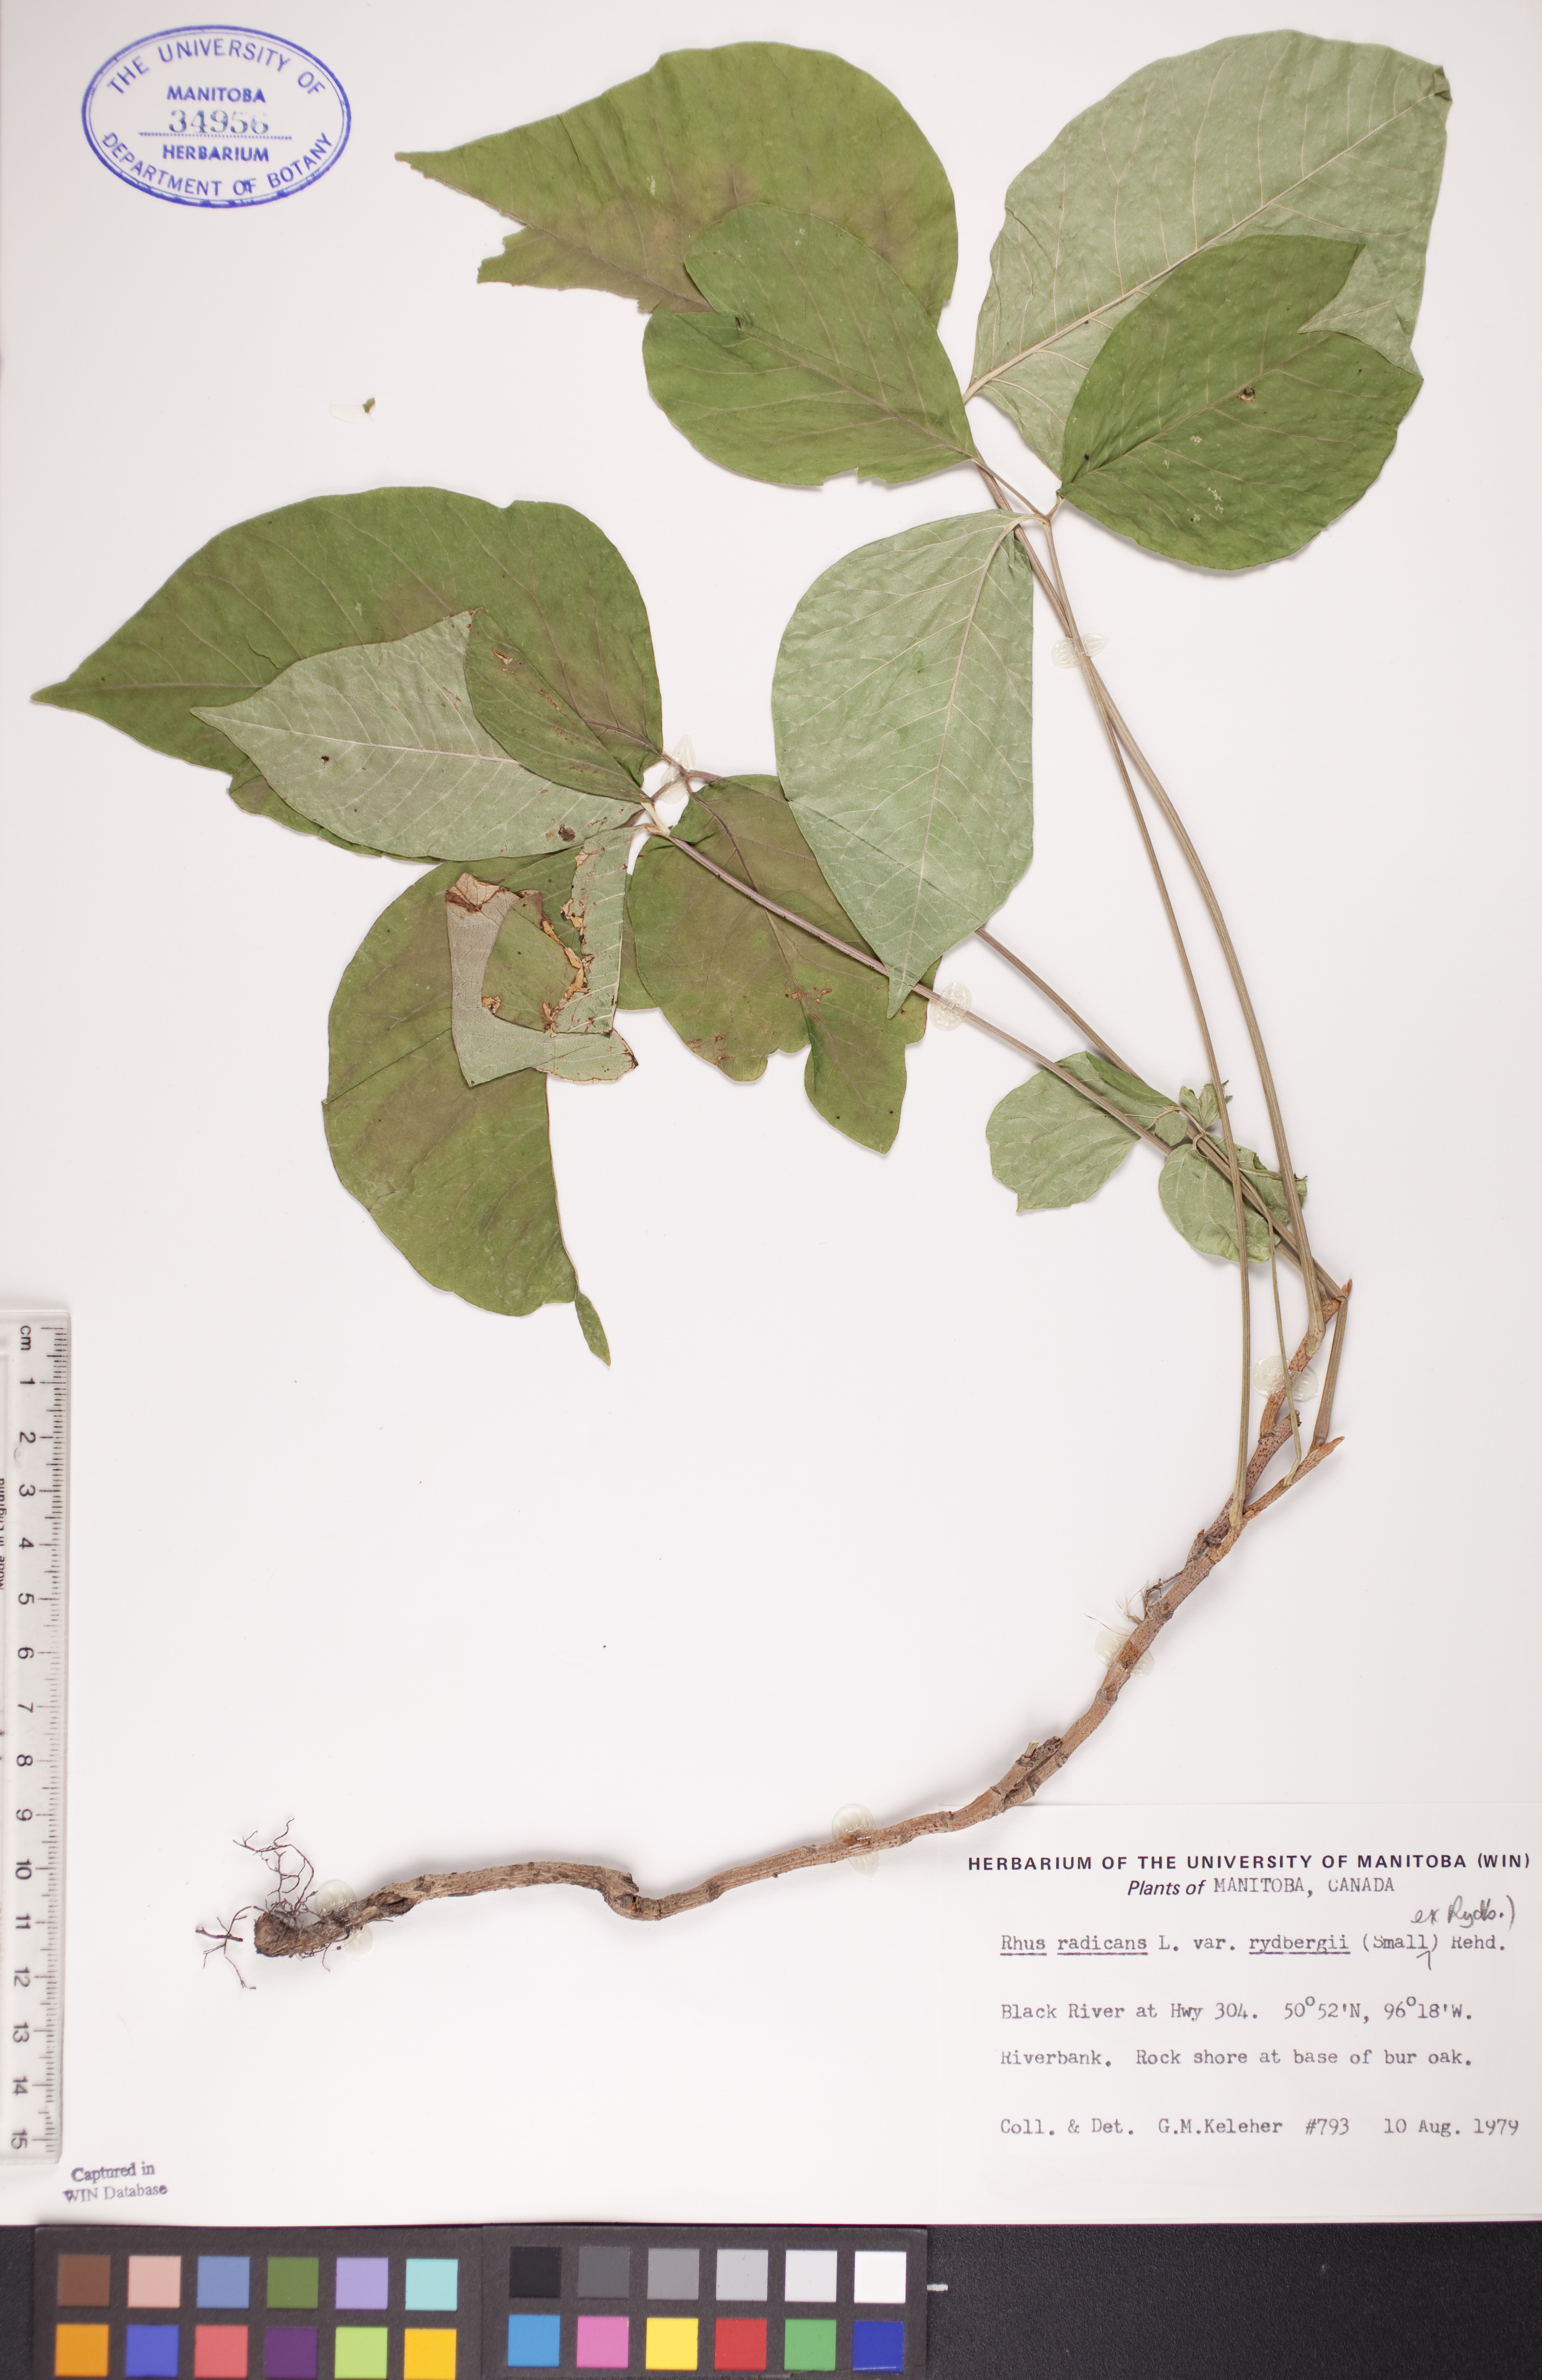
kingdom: Plantae
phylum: Tracheophyta
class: Magnoliopsida
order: Sapindales
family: Anacardiaceae
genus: Toxicodendron
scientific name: Toxicodendron rydbergii
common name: Rydberg's poison-ivy
